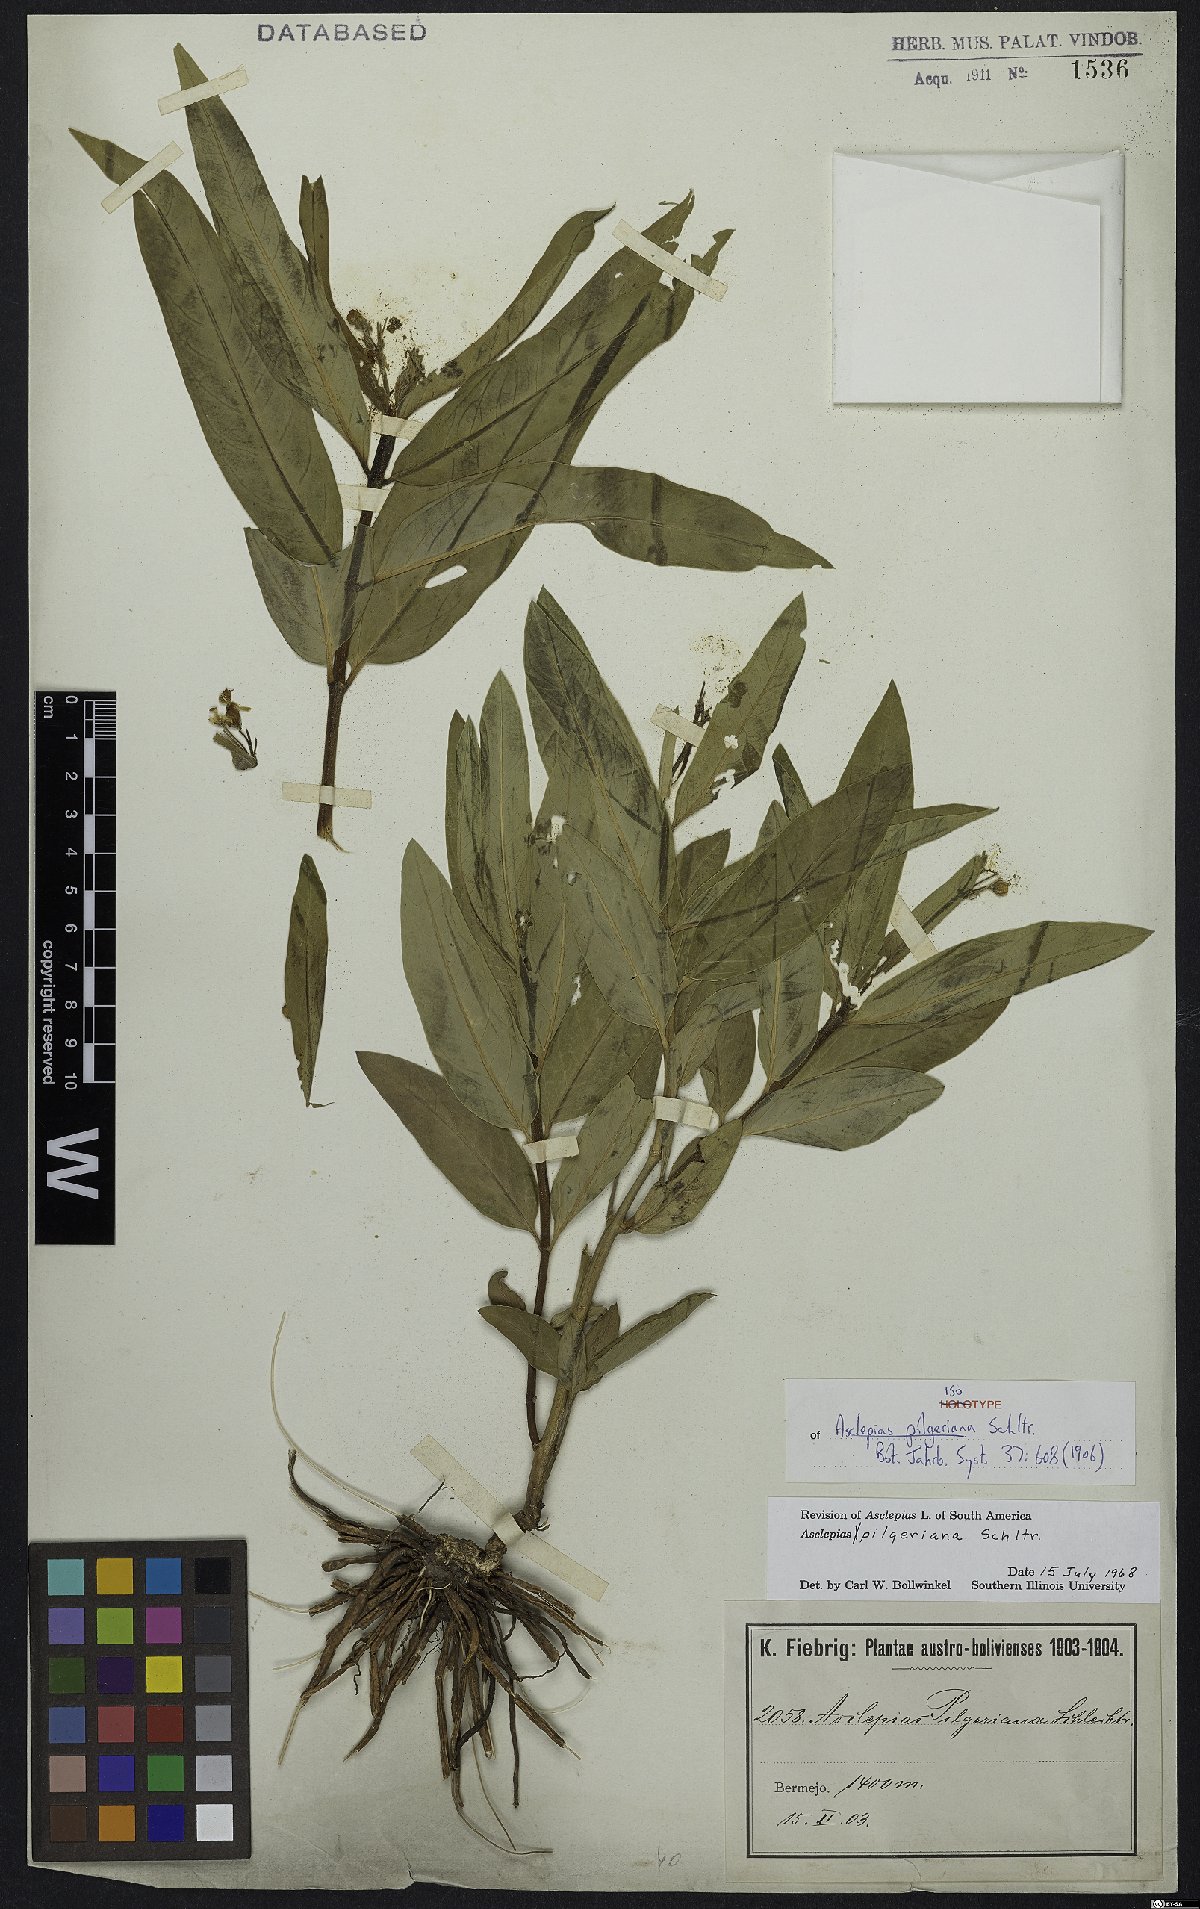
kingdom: Plantae
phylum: Tracheophyta
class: Magnoliopsida
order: Gentianales
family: Apocynaceae
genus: Asclepias
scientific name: Asclepias pilgeriana
